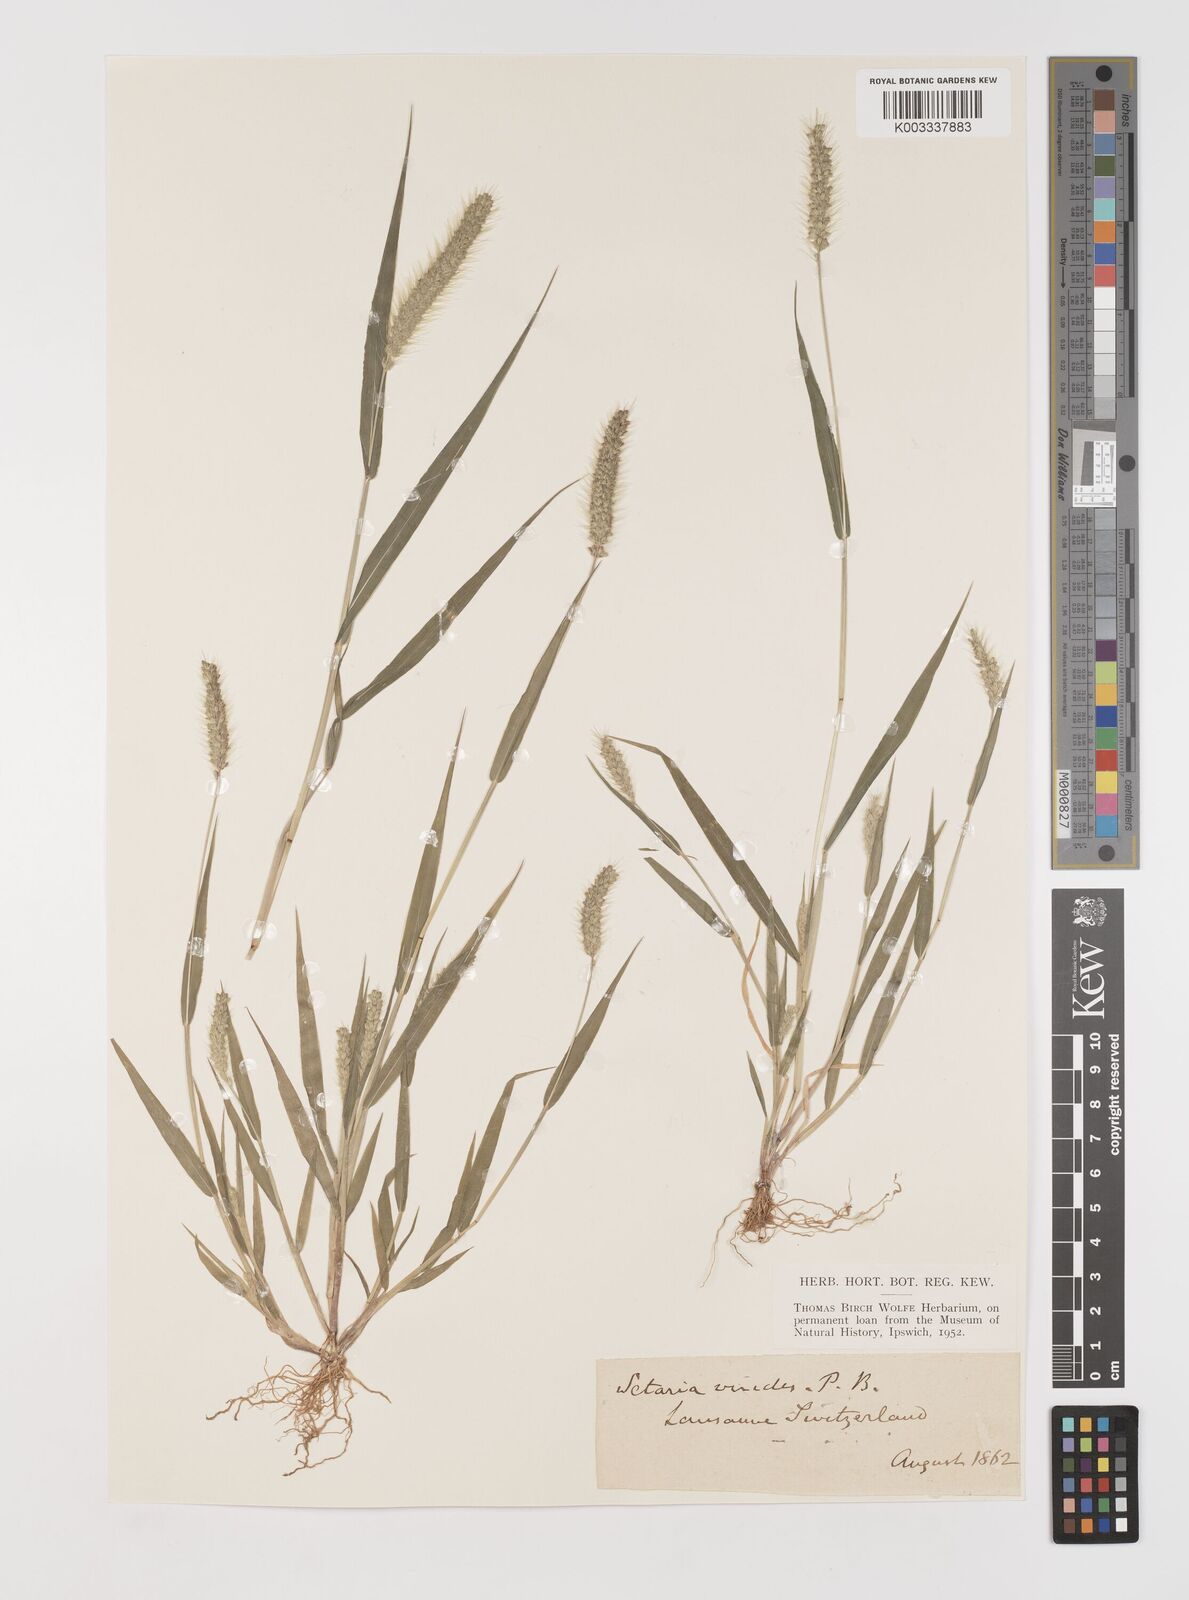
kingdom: Plantae
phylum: Tracheophyta
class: Liliopsida
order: Poales
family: Poaceae
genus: Setaria
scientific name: Setaria viridis
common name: Green bristlegrass
